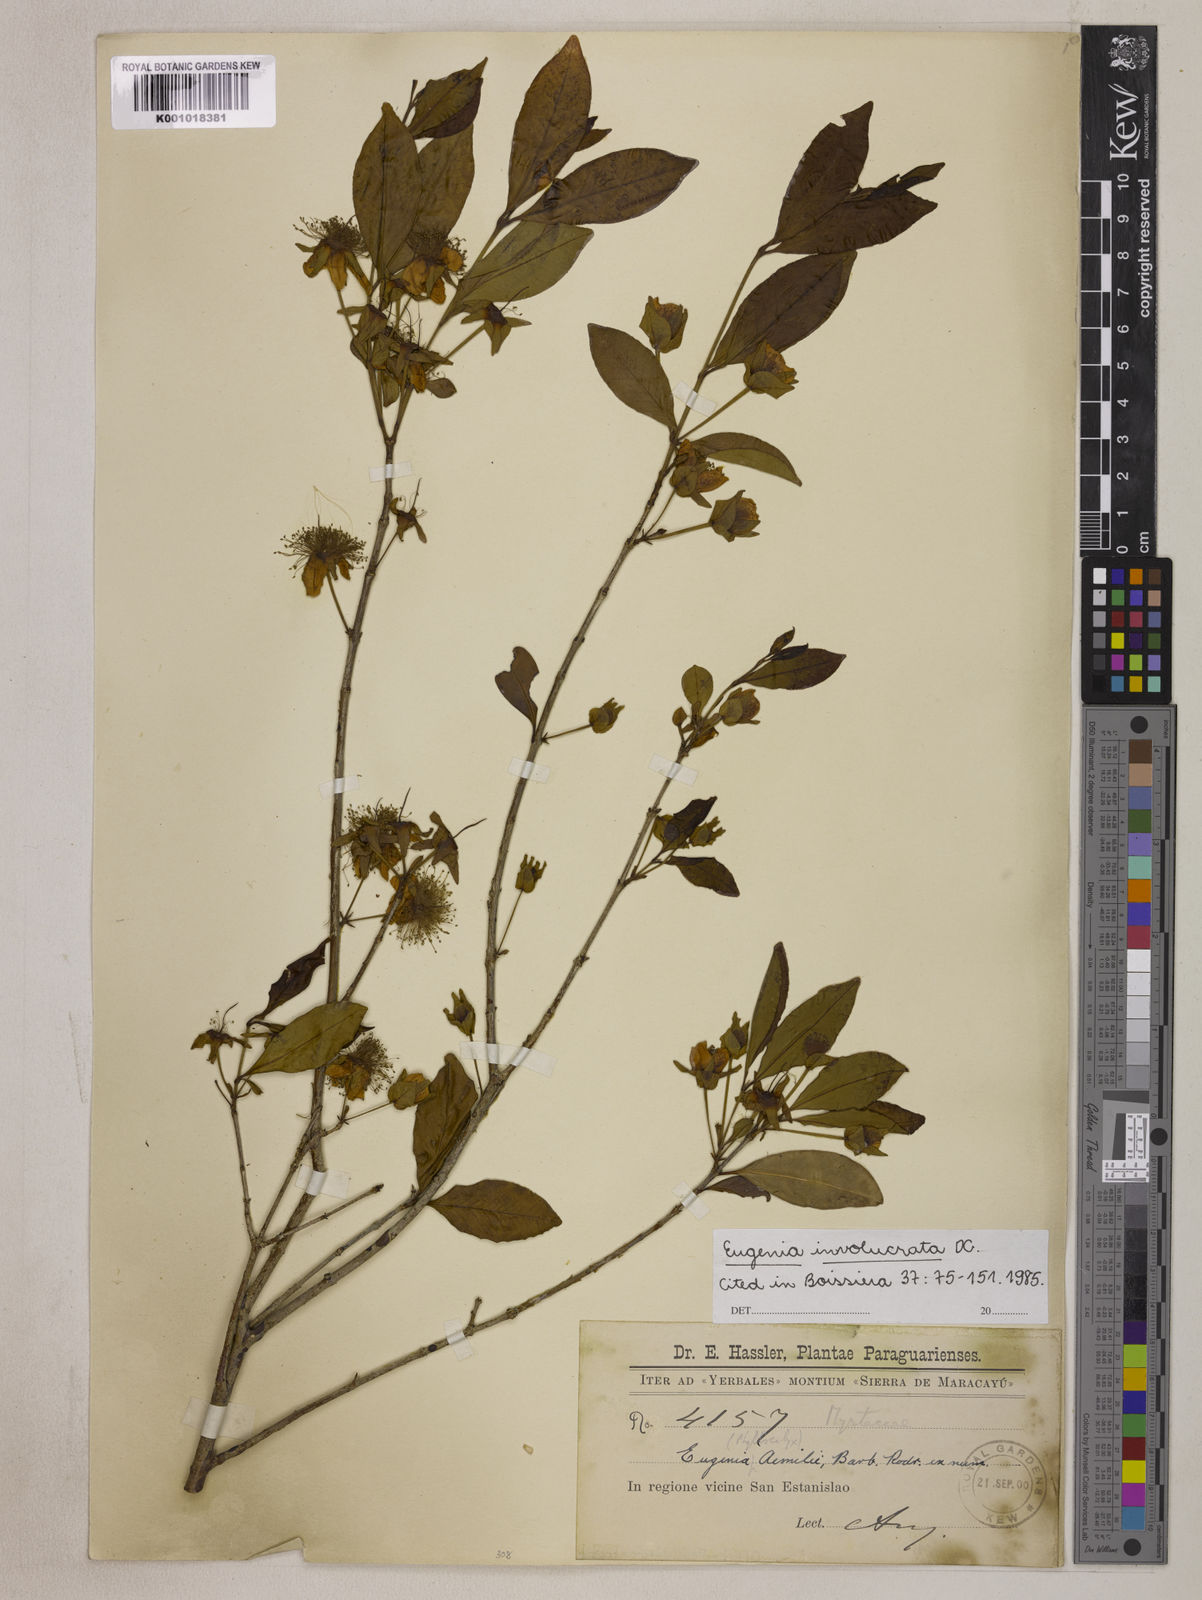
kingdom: Plantae
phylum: Tracheophyta
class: Magnoliopsida
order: Myrtales
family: Myrtaceae
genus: Eugenia
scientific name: Eugenia involucrata
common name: Cherry-of-the-rio grande
